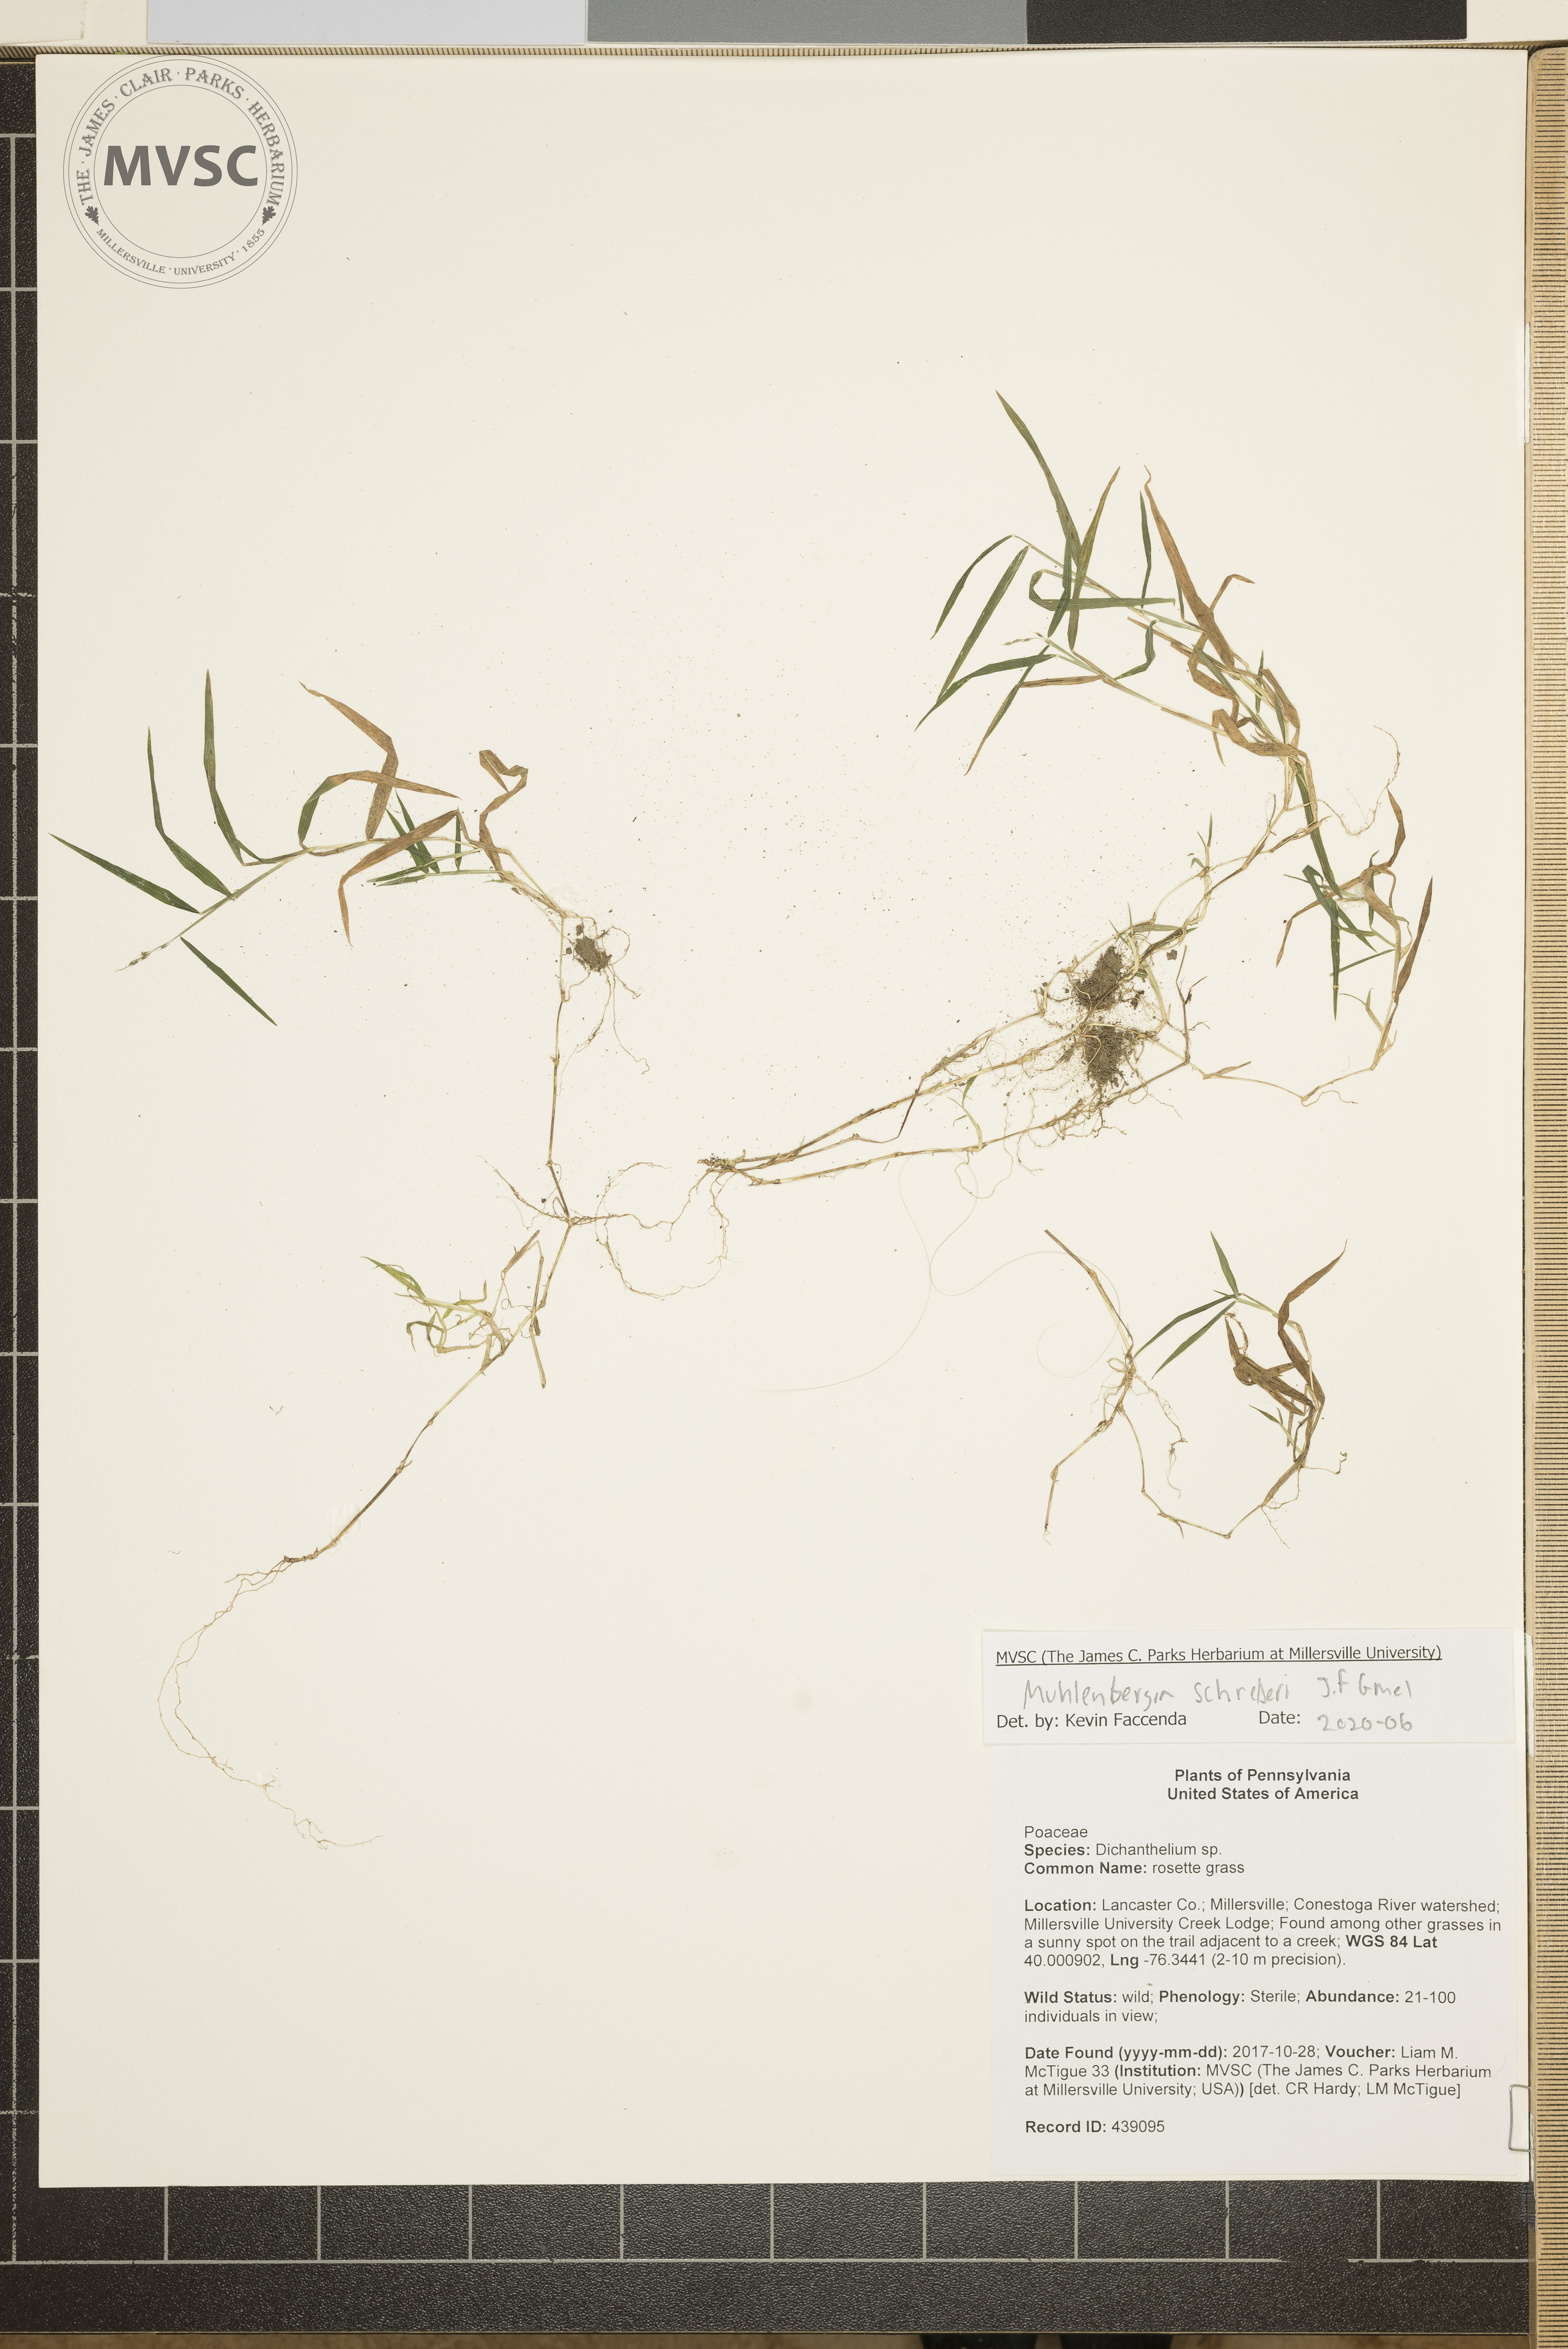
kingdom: Plantae
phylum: Tracheophyta
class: Liliopsida
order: Poales
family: Poaceae
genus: Dichanthelium
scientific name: Dichanthelium
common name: rosette grass
